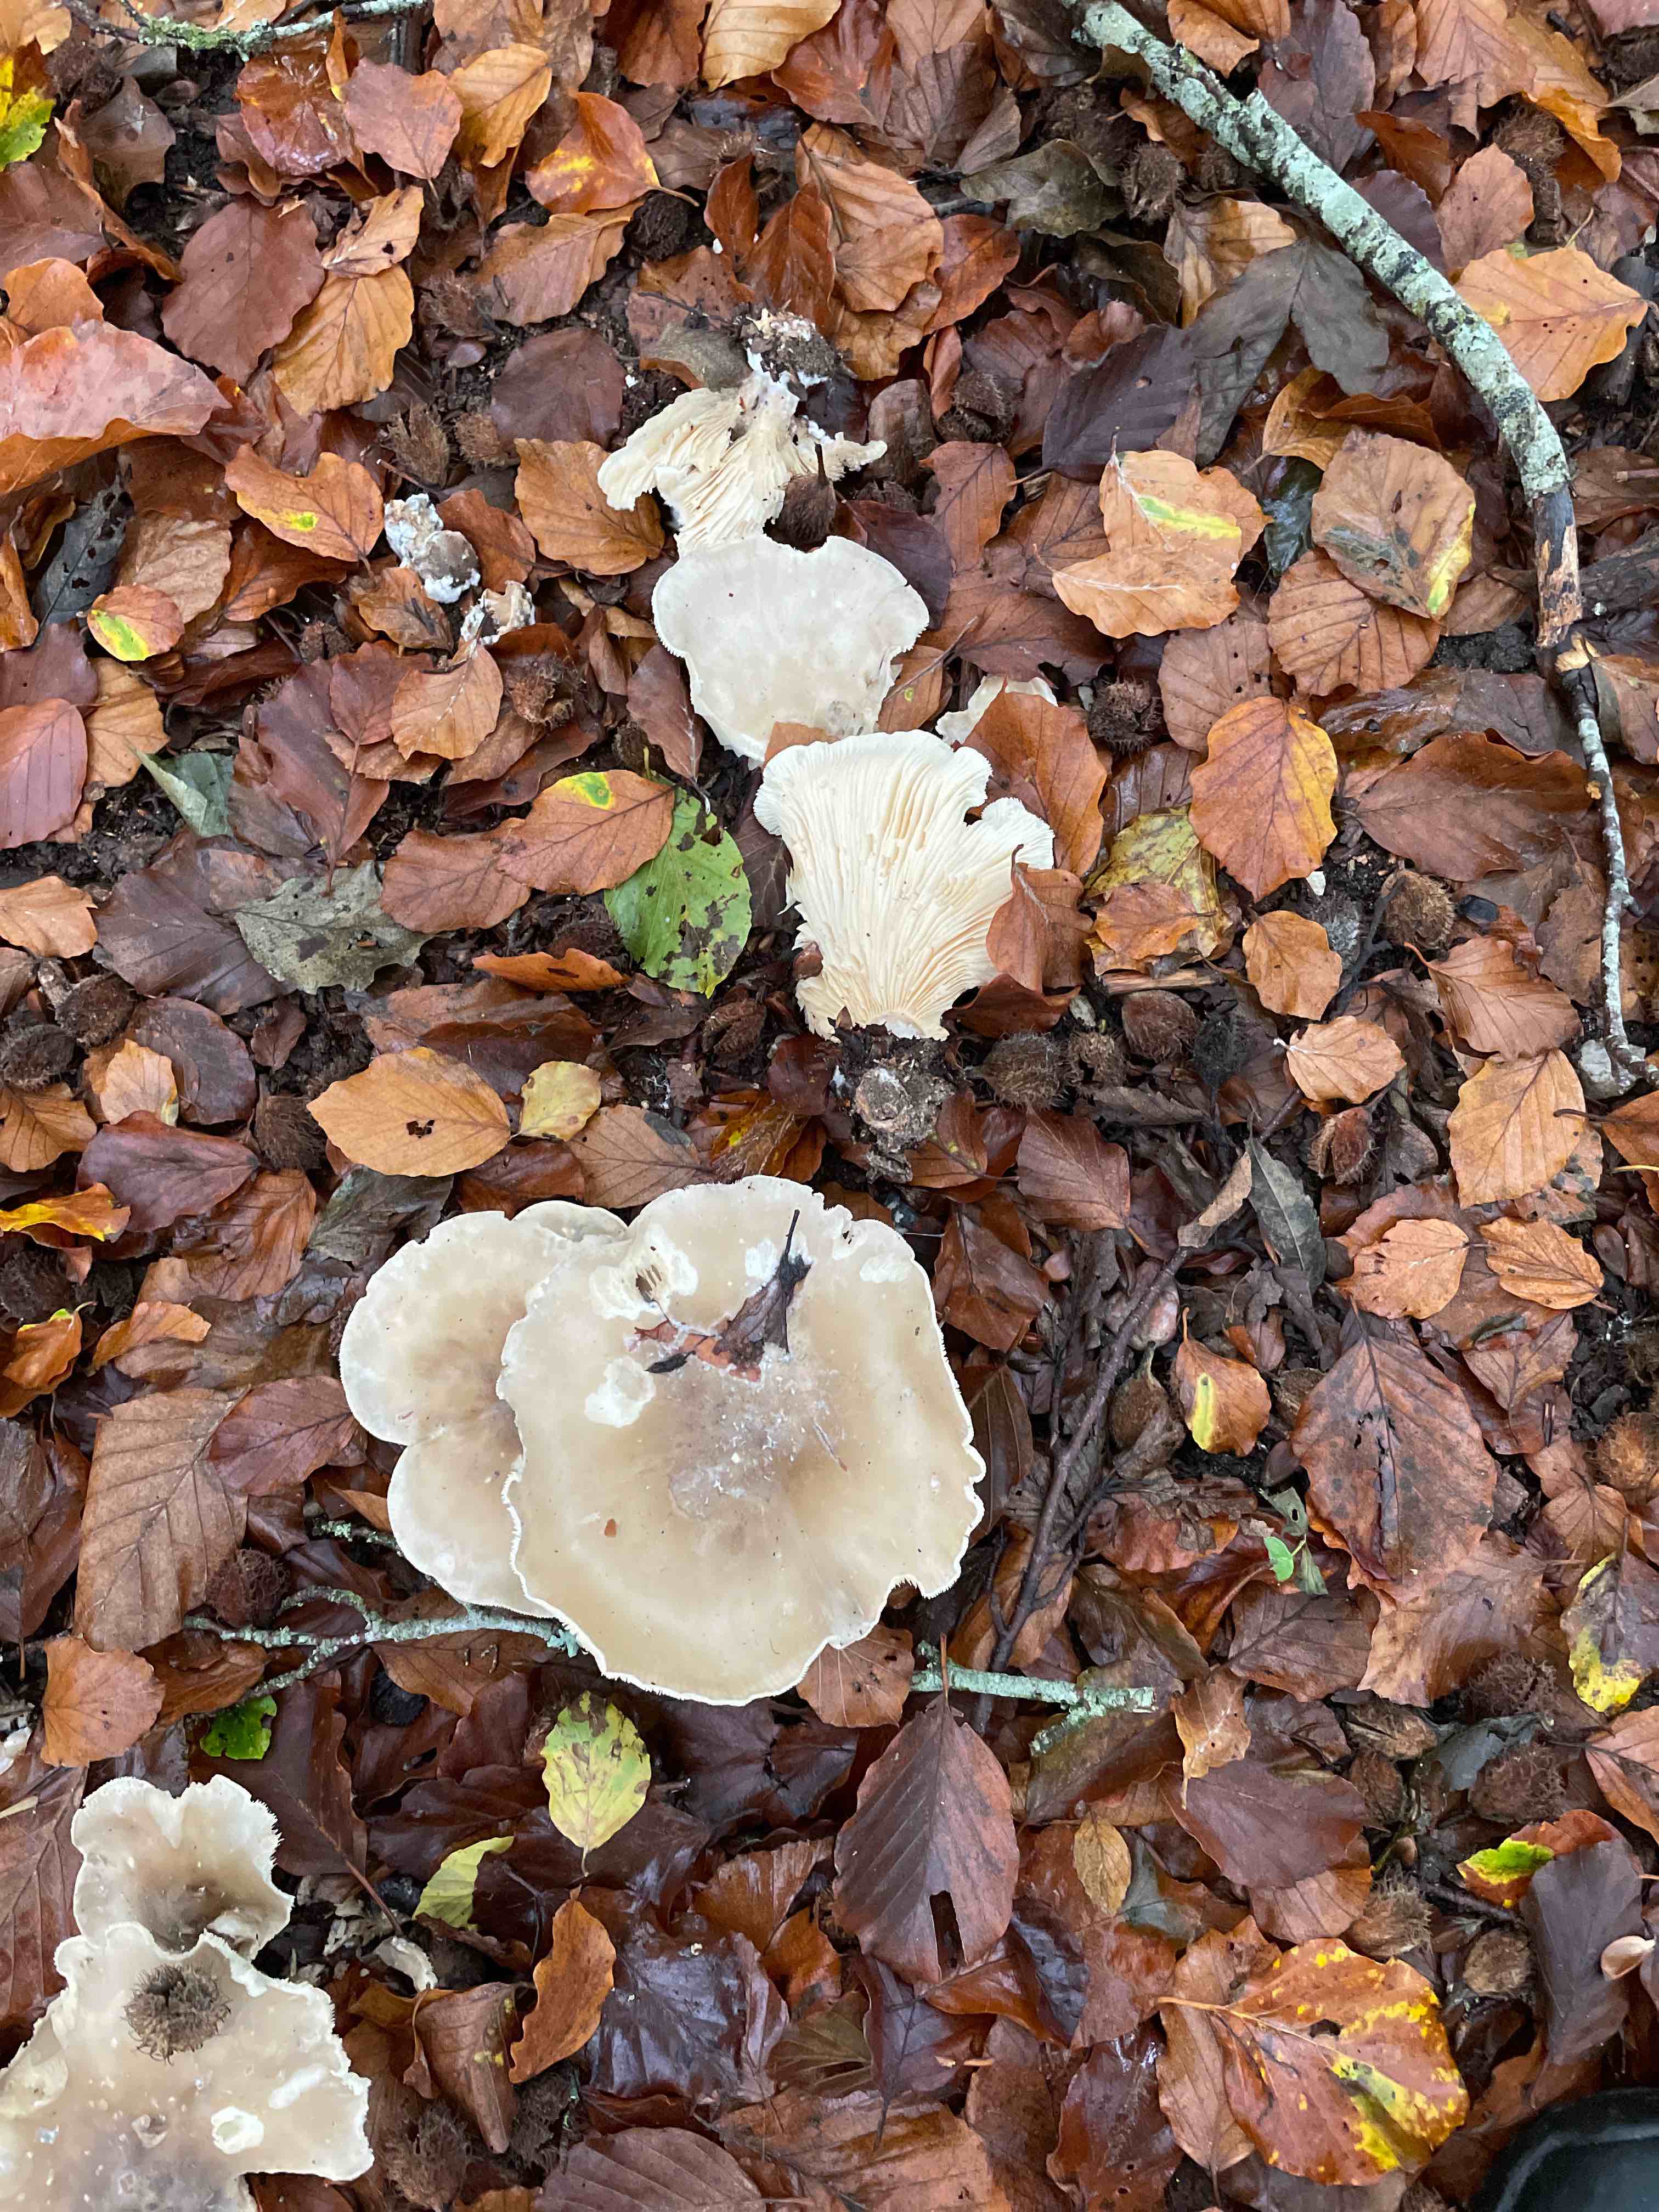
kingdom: Fungi
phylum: Basidiomycota
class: Agaricomycetes
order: Agaricales
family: Tricholomataceae
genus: Clitocybe
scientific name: Clitocybe nebularis
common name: tåge-tragthat
